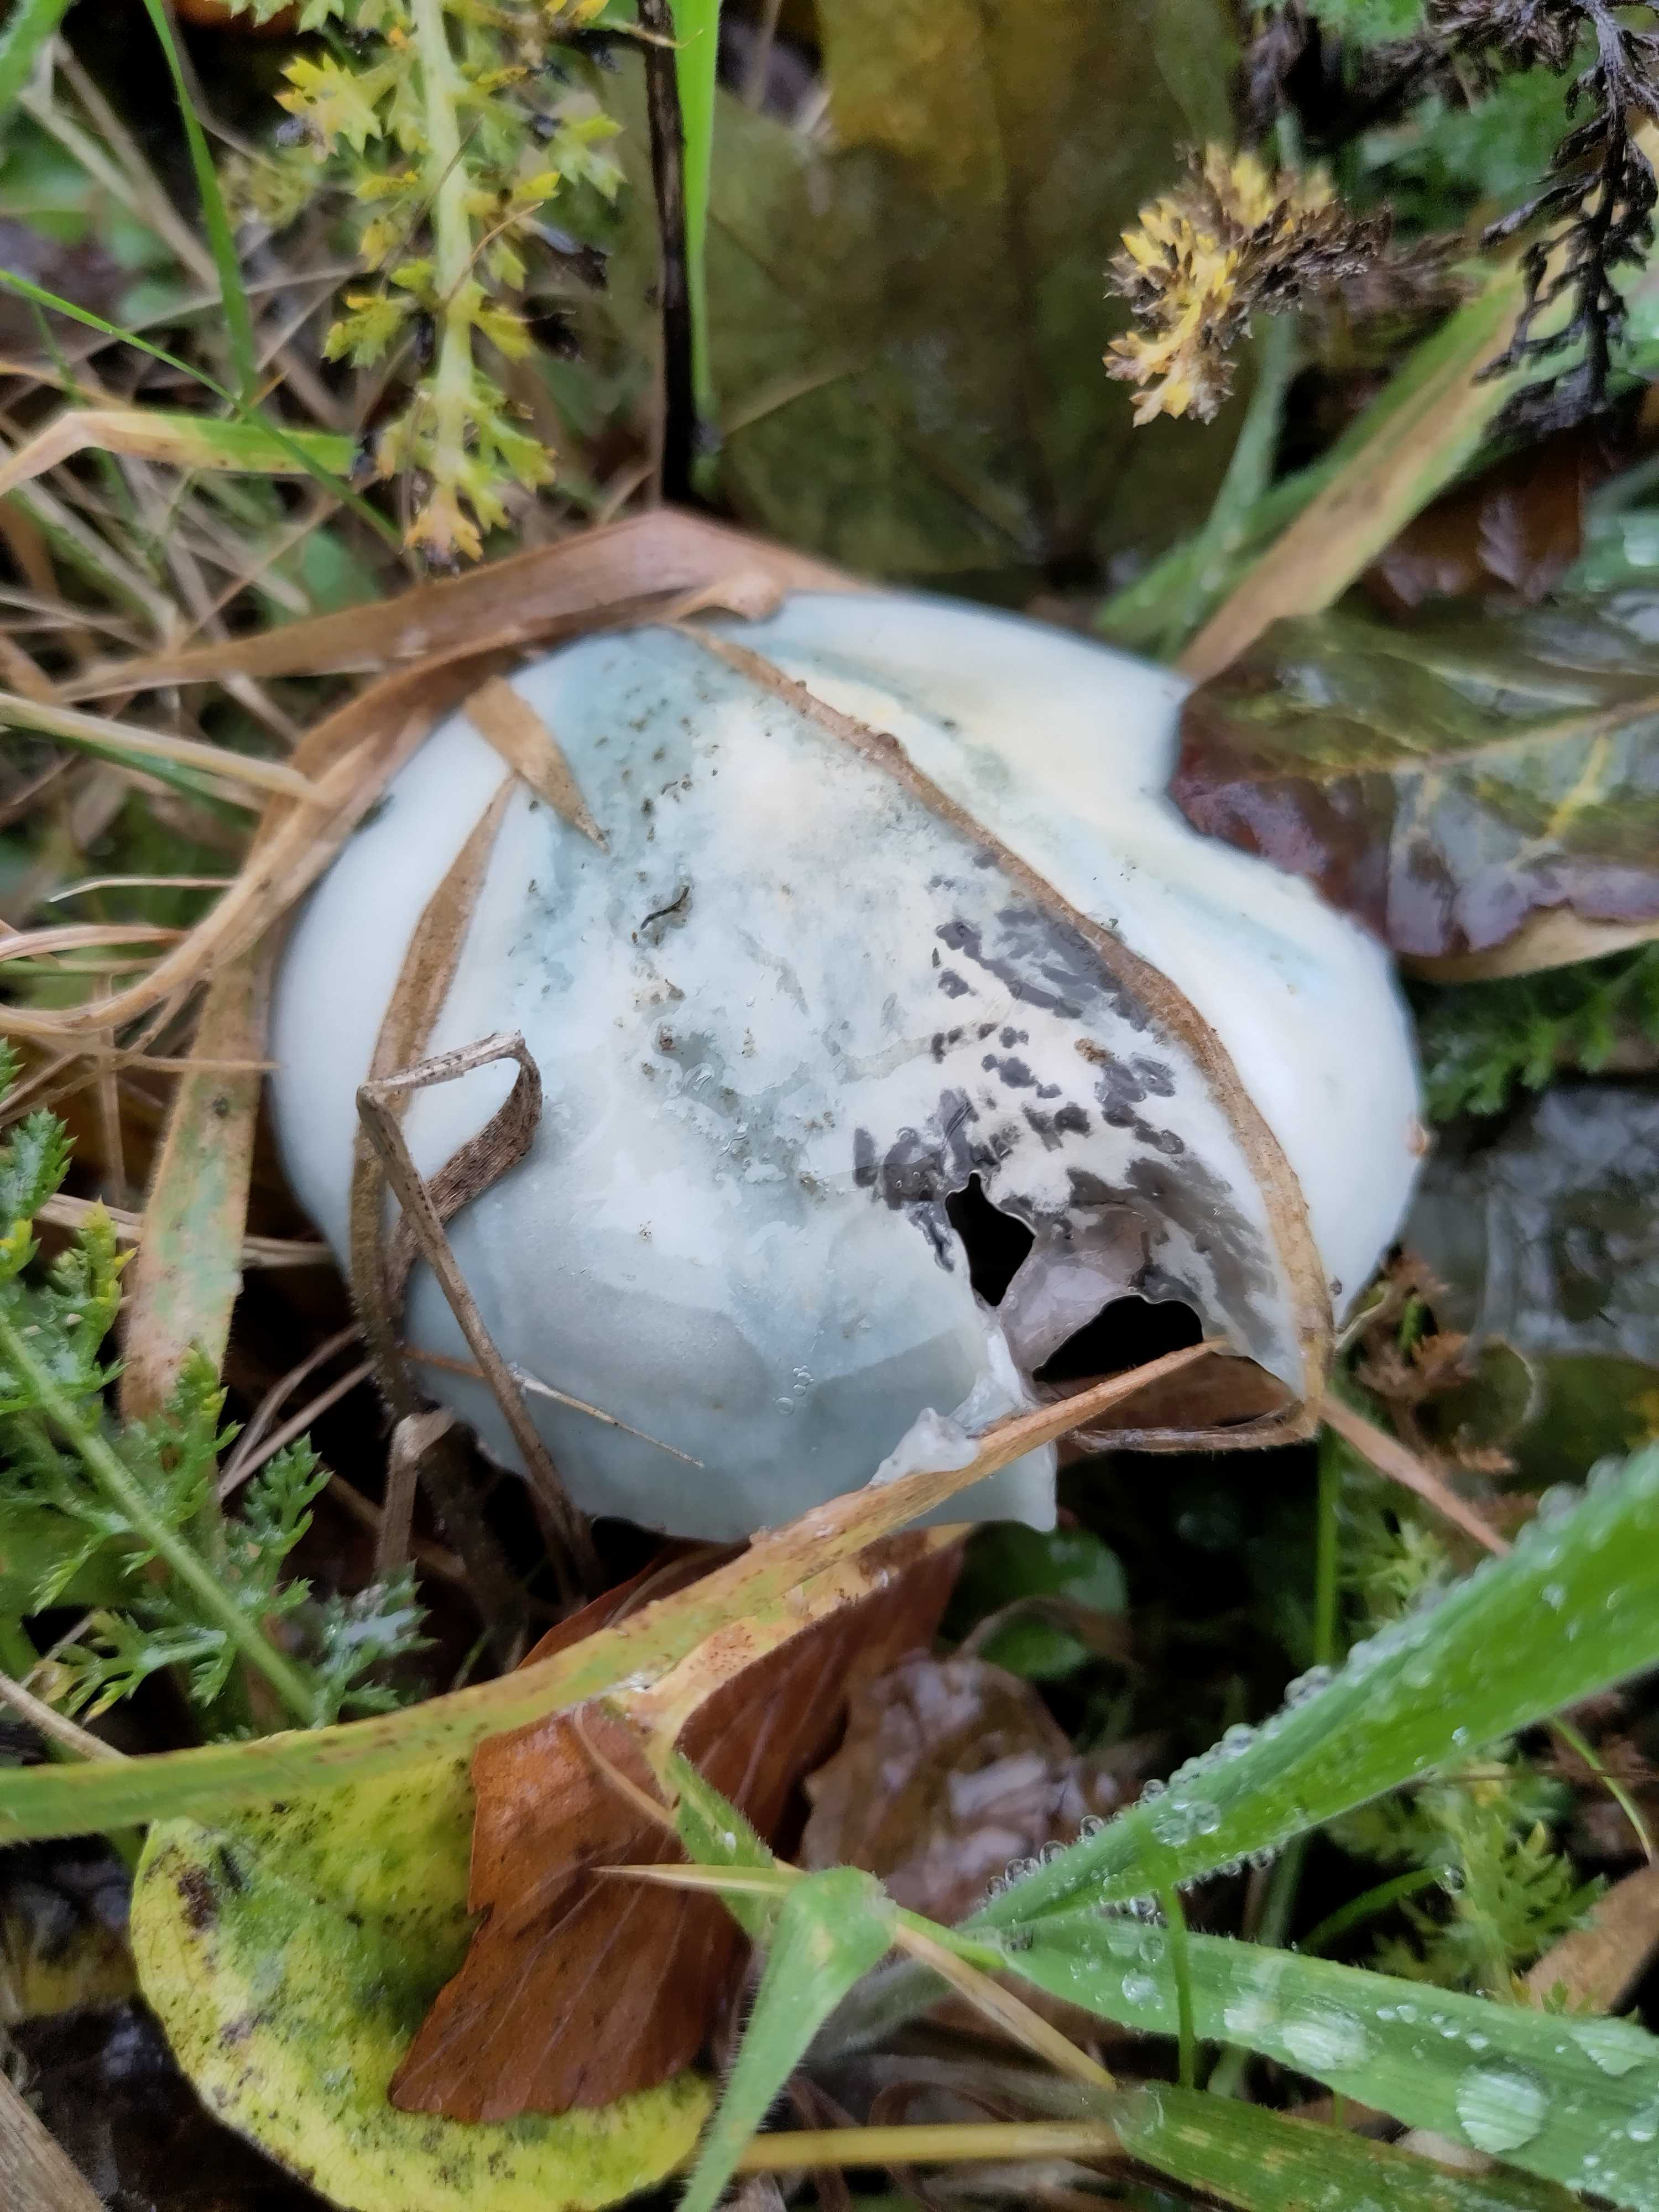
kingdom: Fungi
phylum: Basidiomycota
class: Agaricomycetes
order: Agaricales
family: Strophariaceae
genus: Stropharia
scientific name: Stropharia cyanea
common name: blågrøn bredblad
